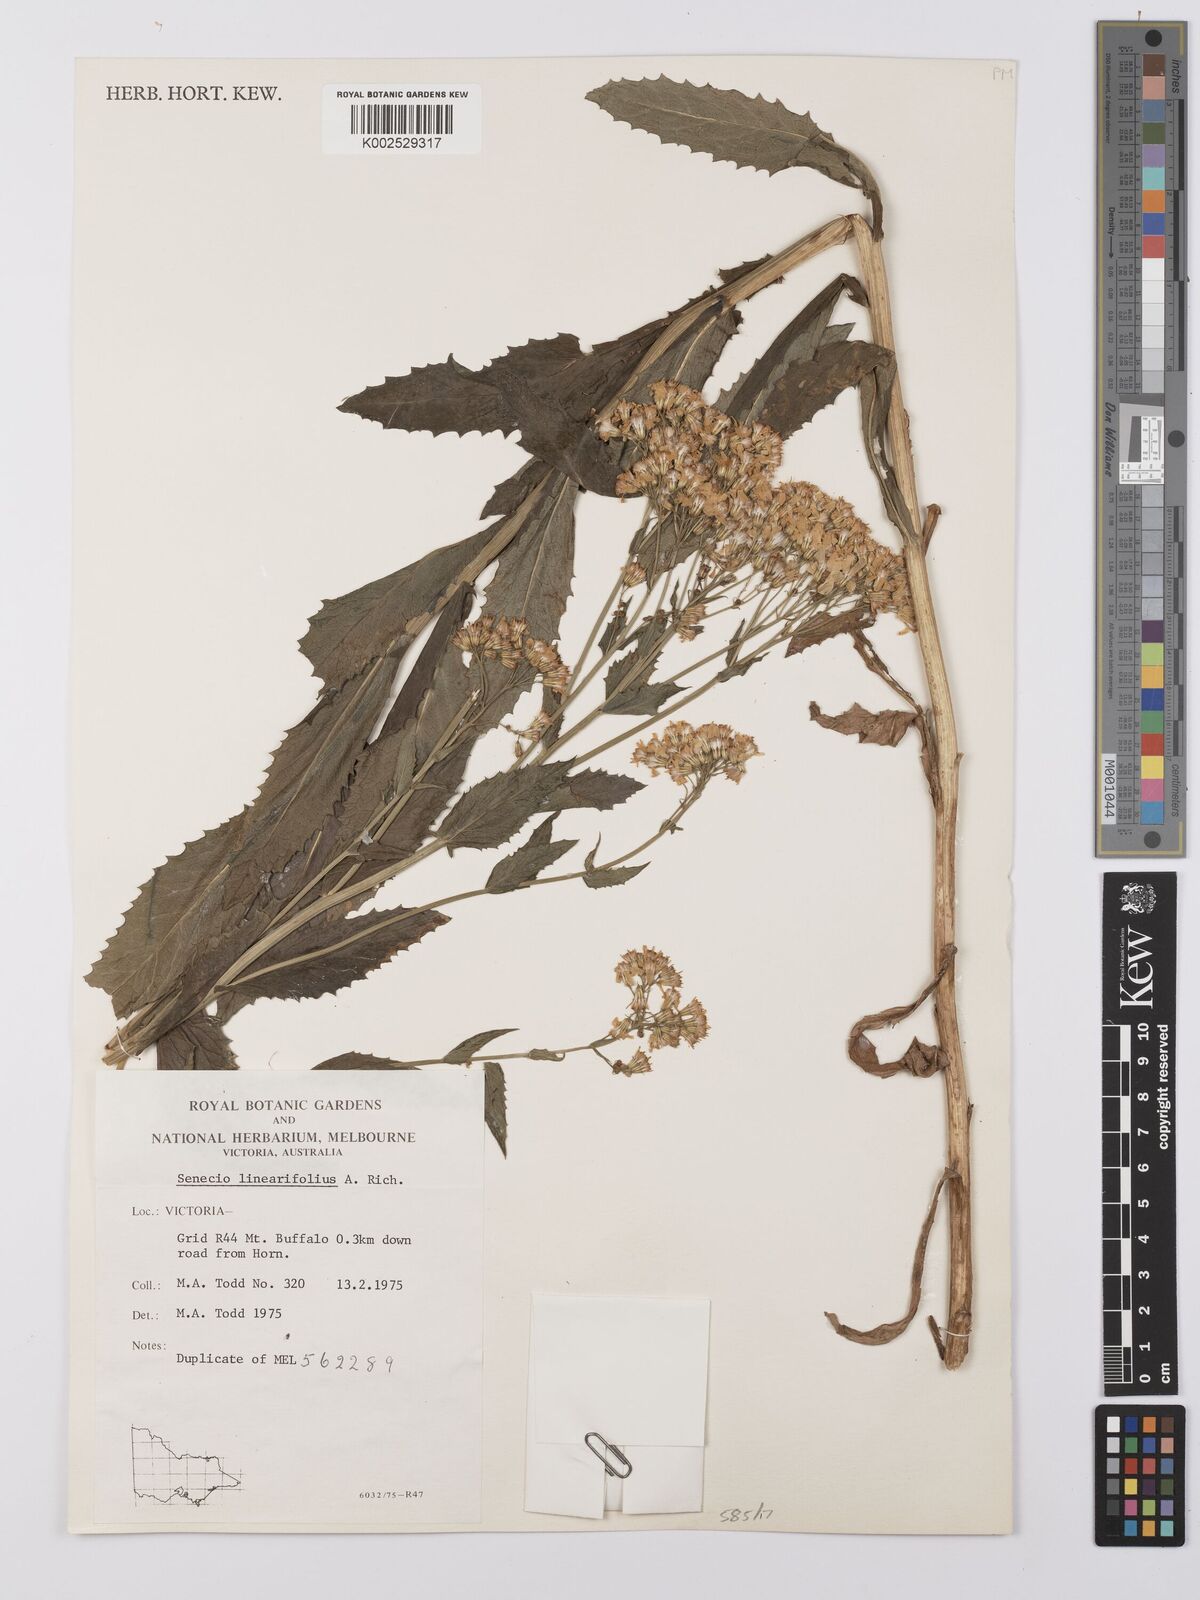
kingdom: Plantae
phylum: Tracheophyta
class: Magnoliopsida
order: Asterales
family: Asteraceae
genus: Senecio
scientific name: Senecio linearifolius
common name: Fireweed groundsel
